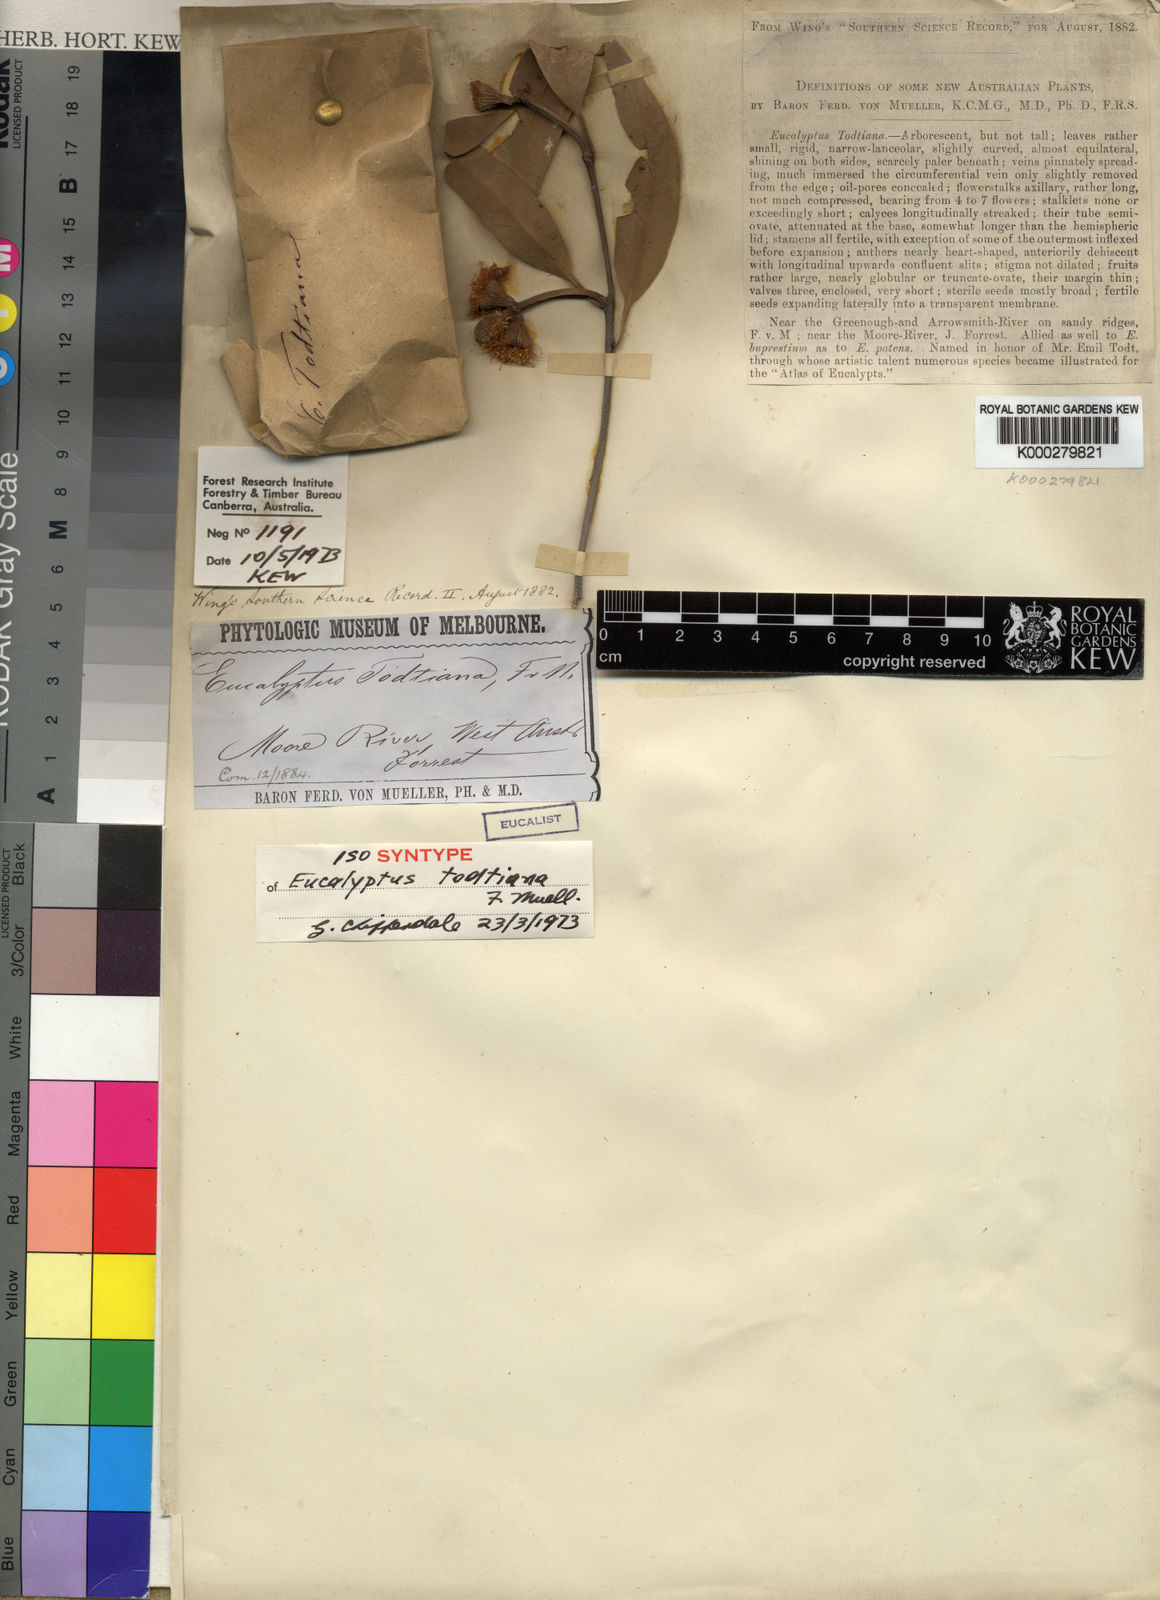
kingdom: Plantae
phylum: Tracheophyta
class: Magnoliopsida
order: Myrtales
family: Myrtaceae
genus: Eucalyptus
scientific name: Eucalyptus todtiana
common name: Coastal blackbutt
